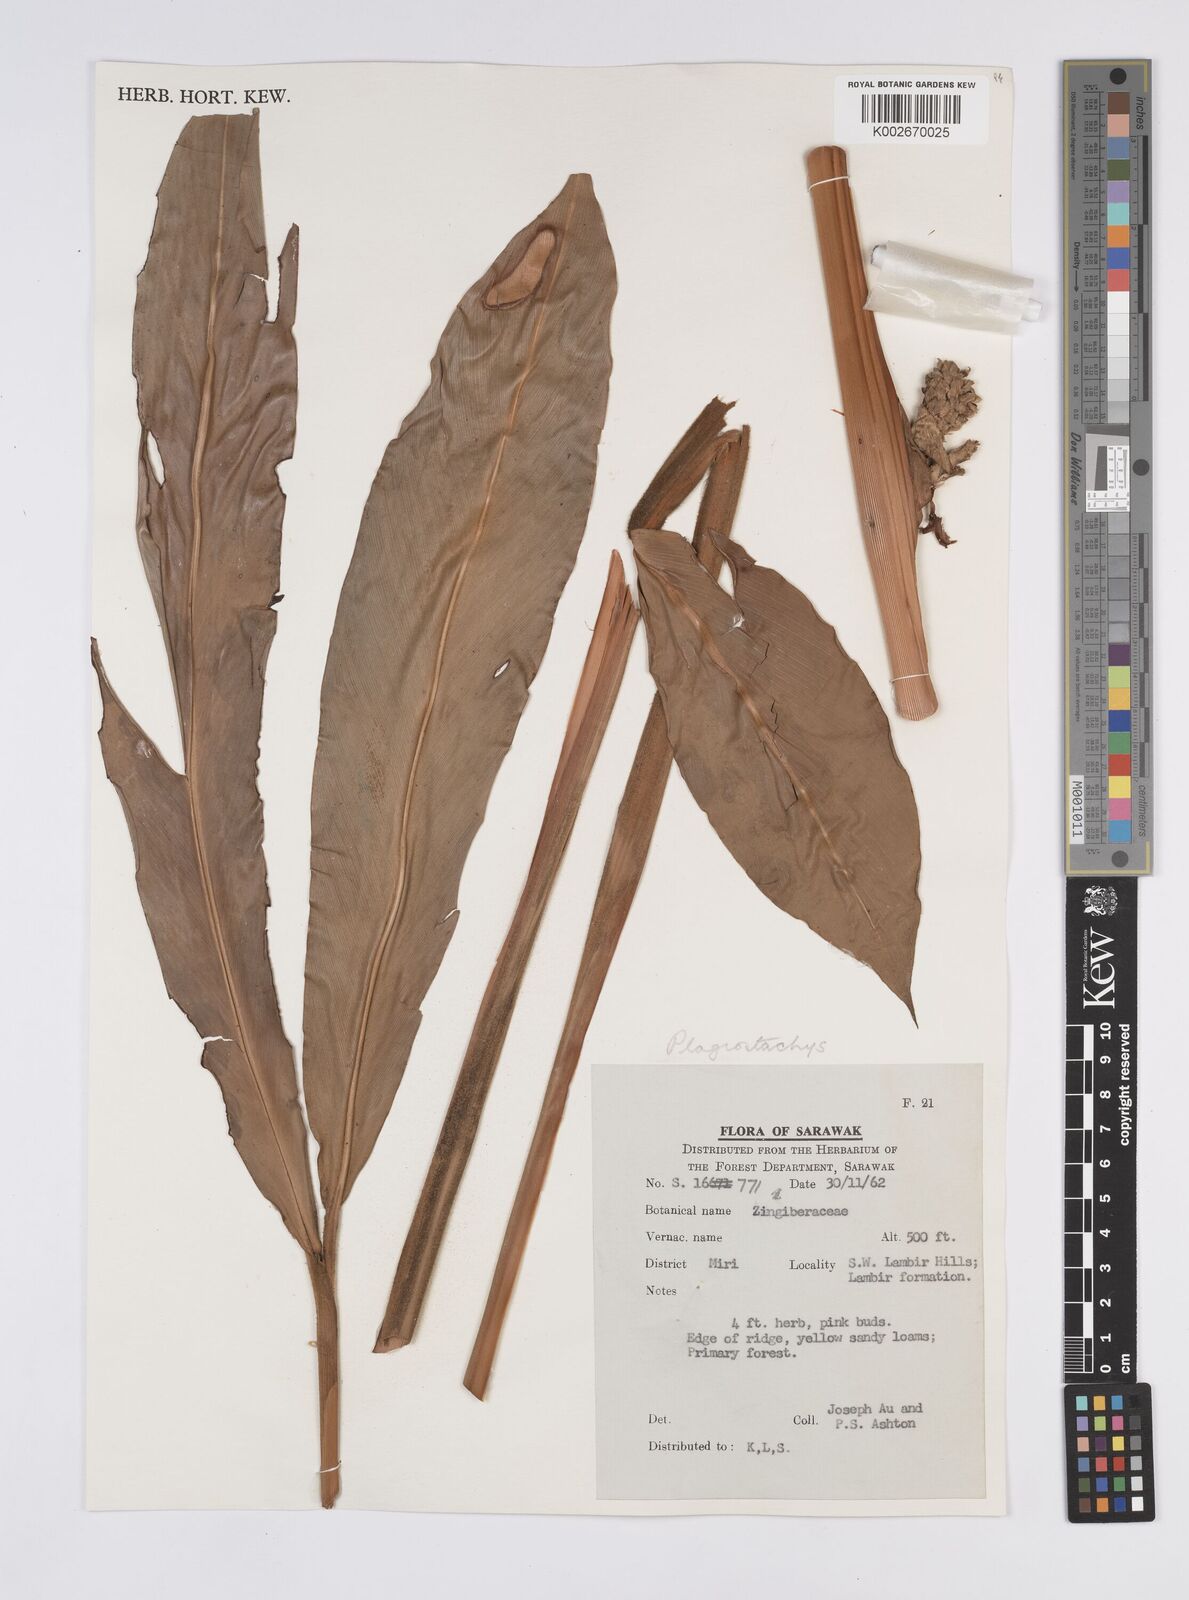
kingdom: Plantae
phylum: Tracheophyta
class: Liliopsida
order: Zingiberales
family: Zingiberaceae
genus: Plagiostachys
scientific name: Plagiostachys
